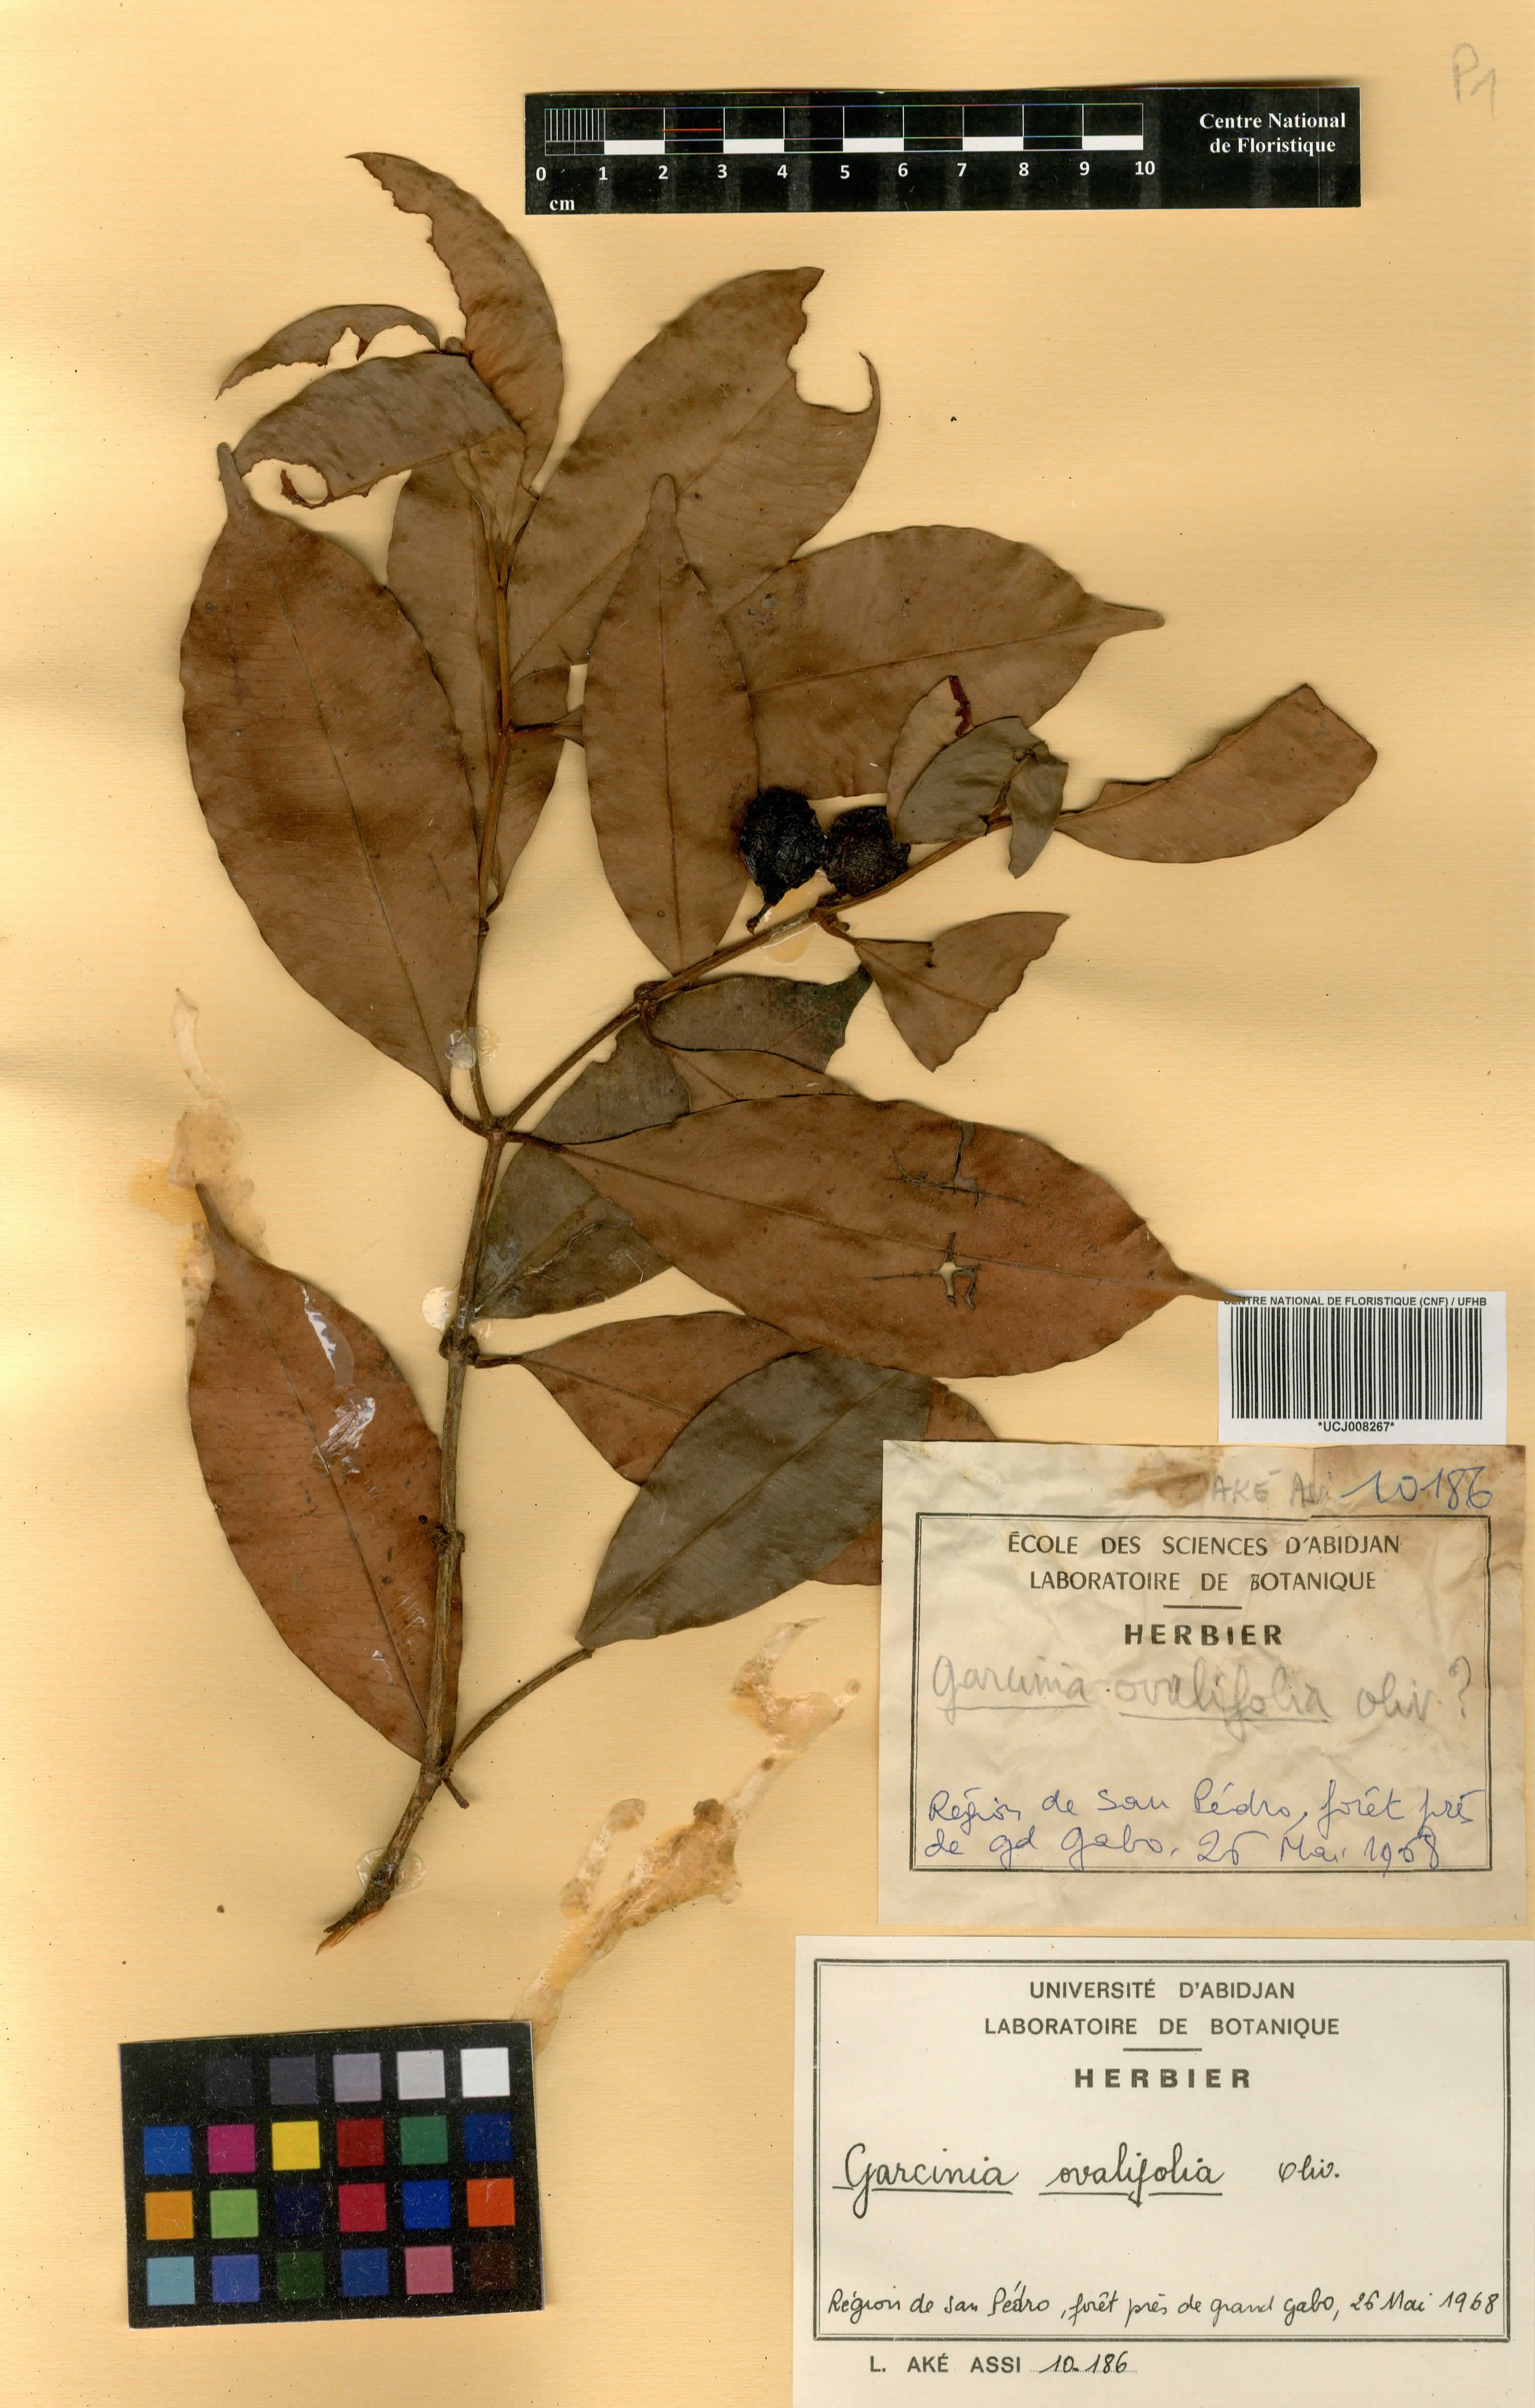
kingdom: Plantae
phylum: Tracheophyta
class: Magnoliopsida
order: Malpighiales
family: Clusiaceae
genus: Garcinia
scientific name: Garcinia ovalifolia
